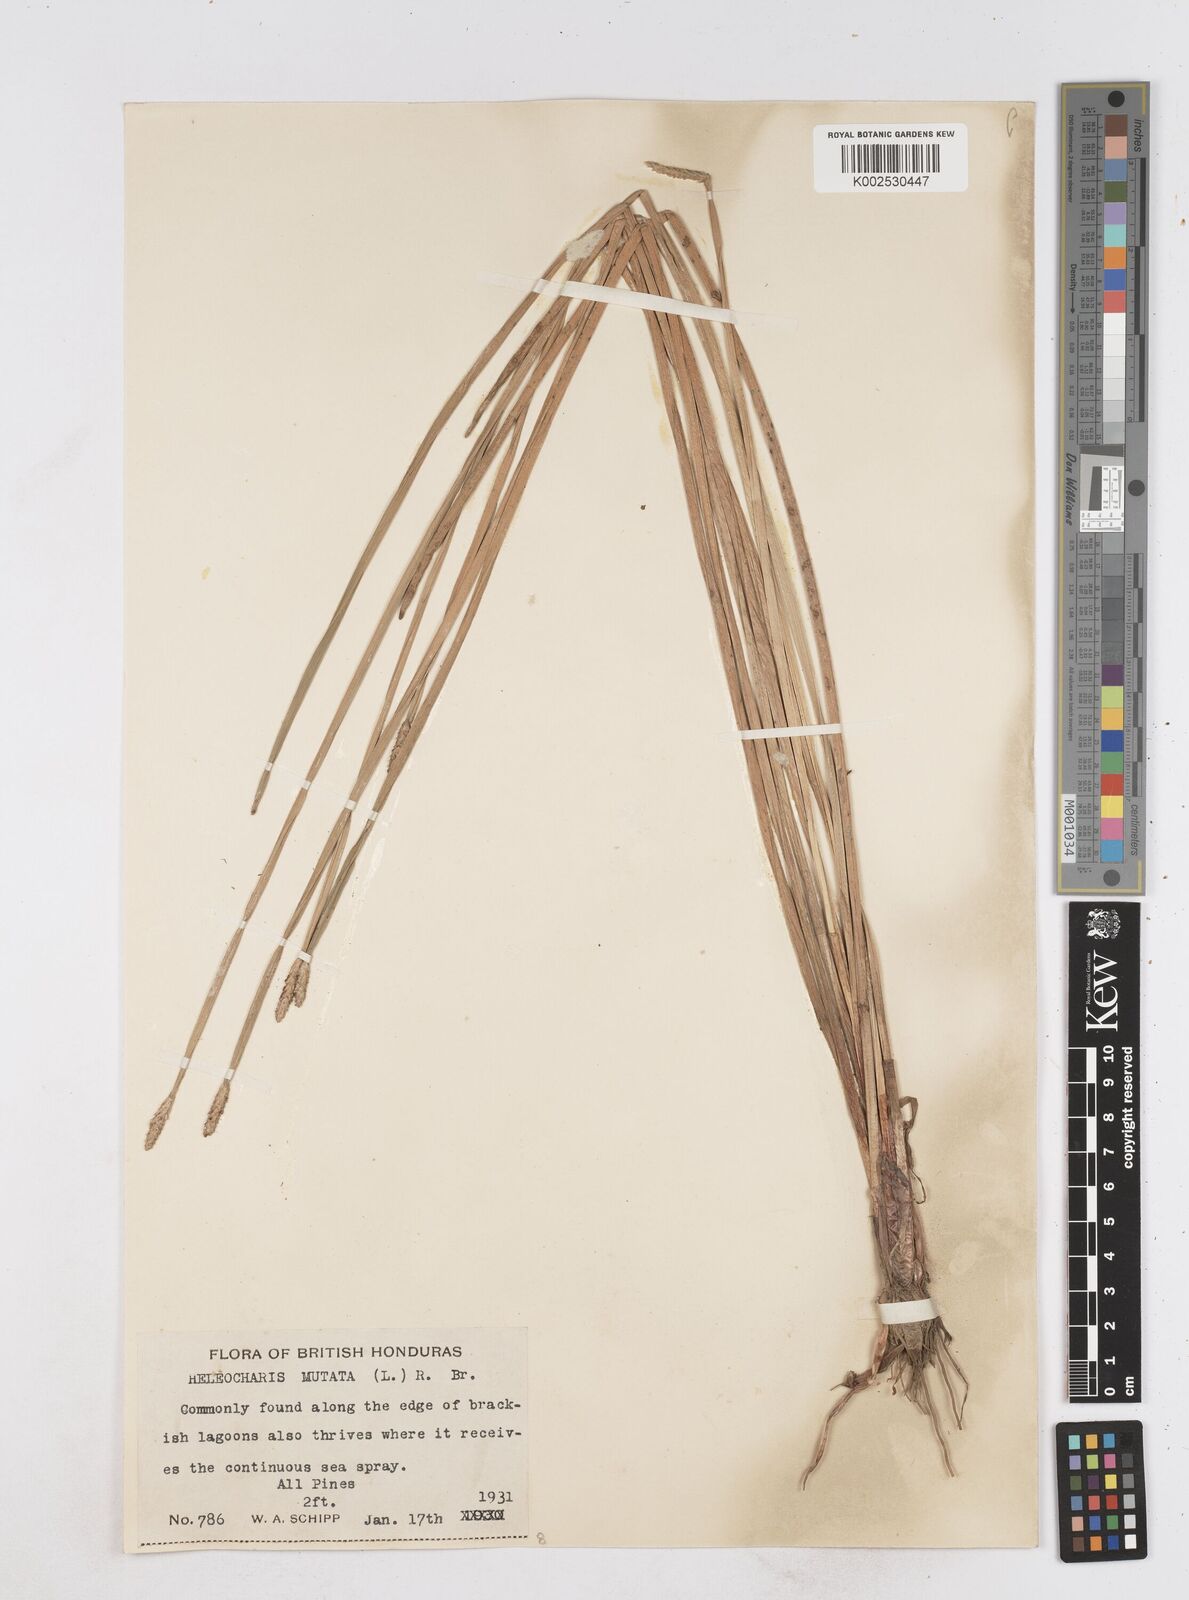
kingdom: Plantae
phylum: Tracheophyta
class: Liliopsida
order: Poales
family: Cyperaceae
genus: Eleocharis
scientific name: Eleocharis mutata
